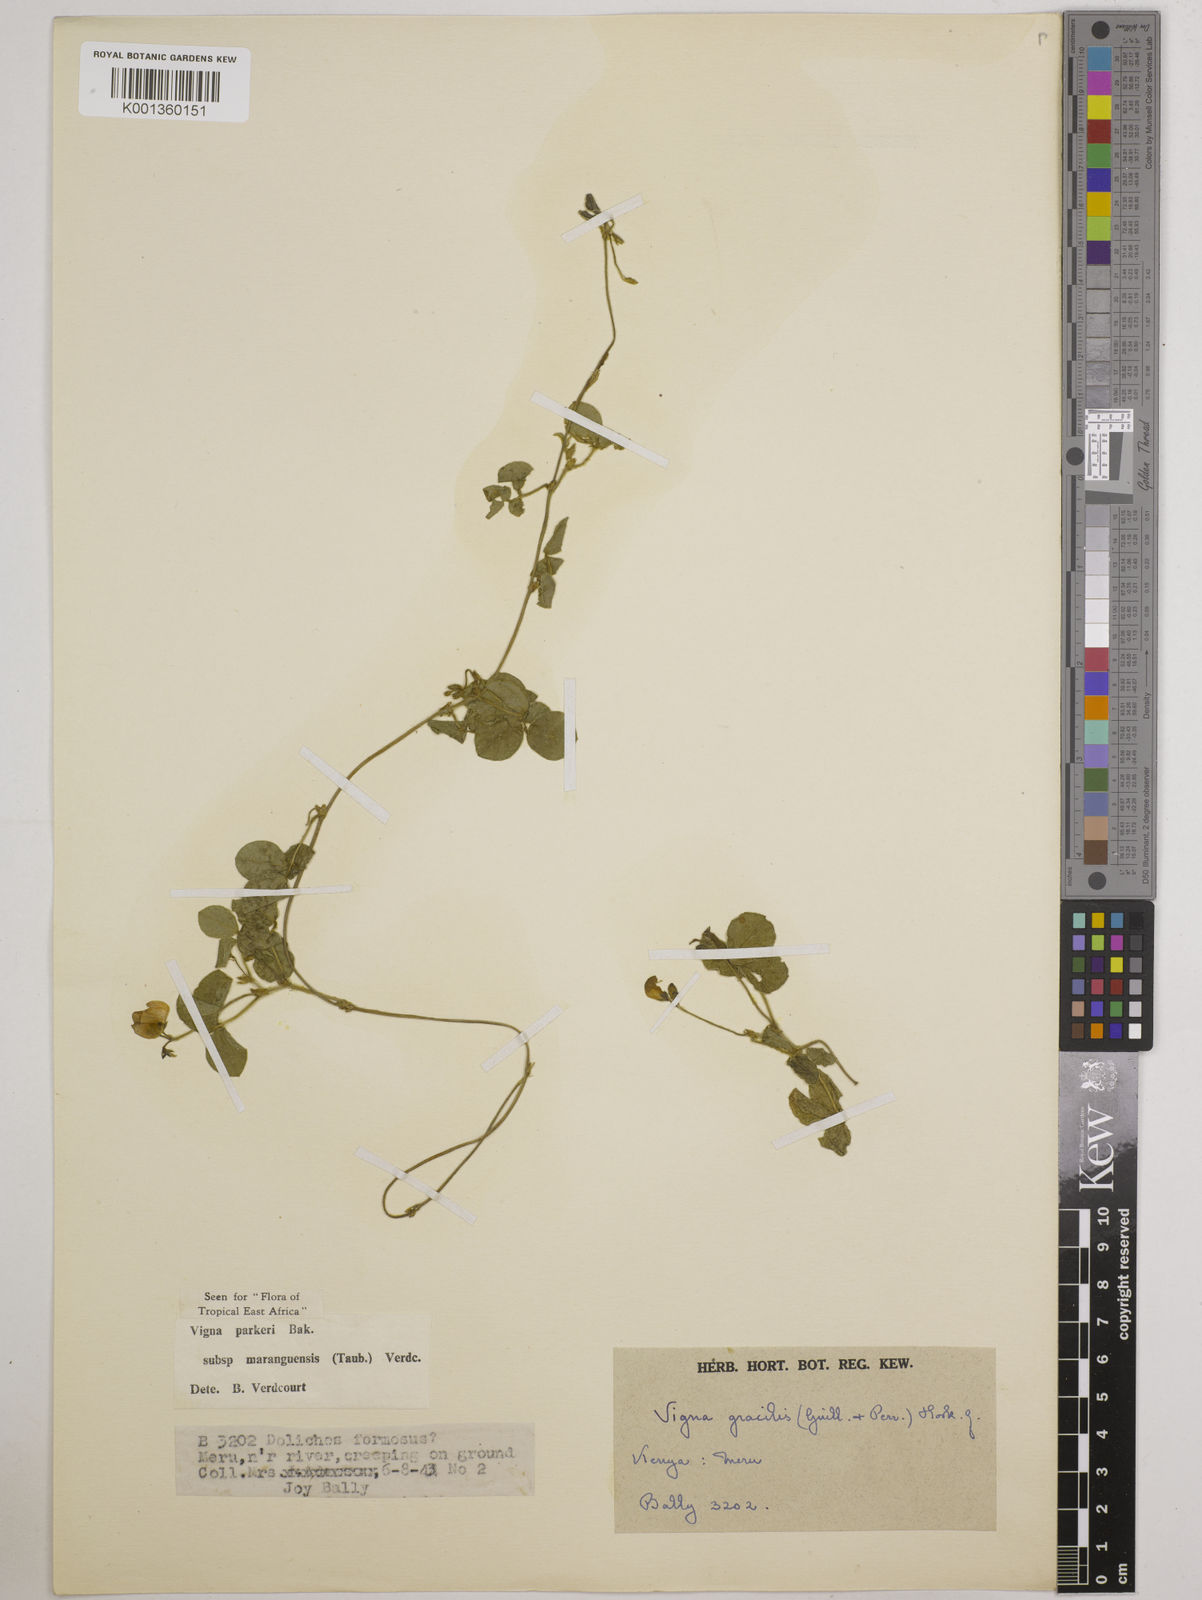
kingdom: Plantae
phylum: Tracheophyta
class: Magnoliopsida
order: Fabales
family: Fabaceae
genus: Vigna
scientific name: Vigna
